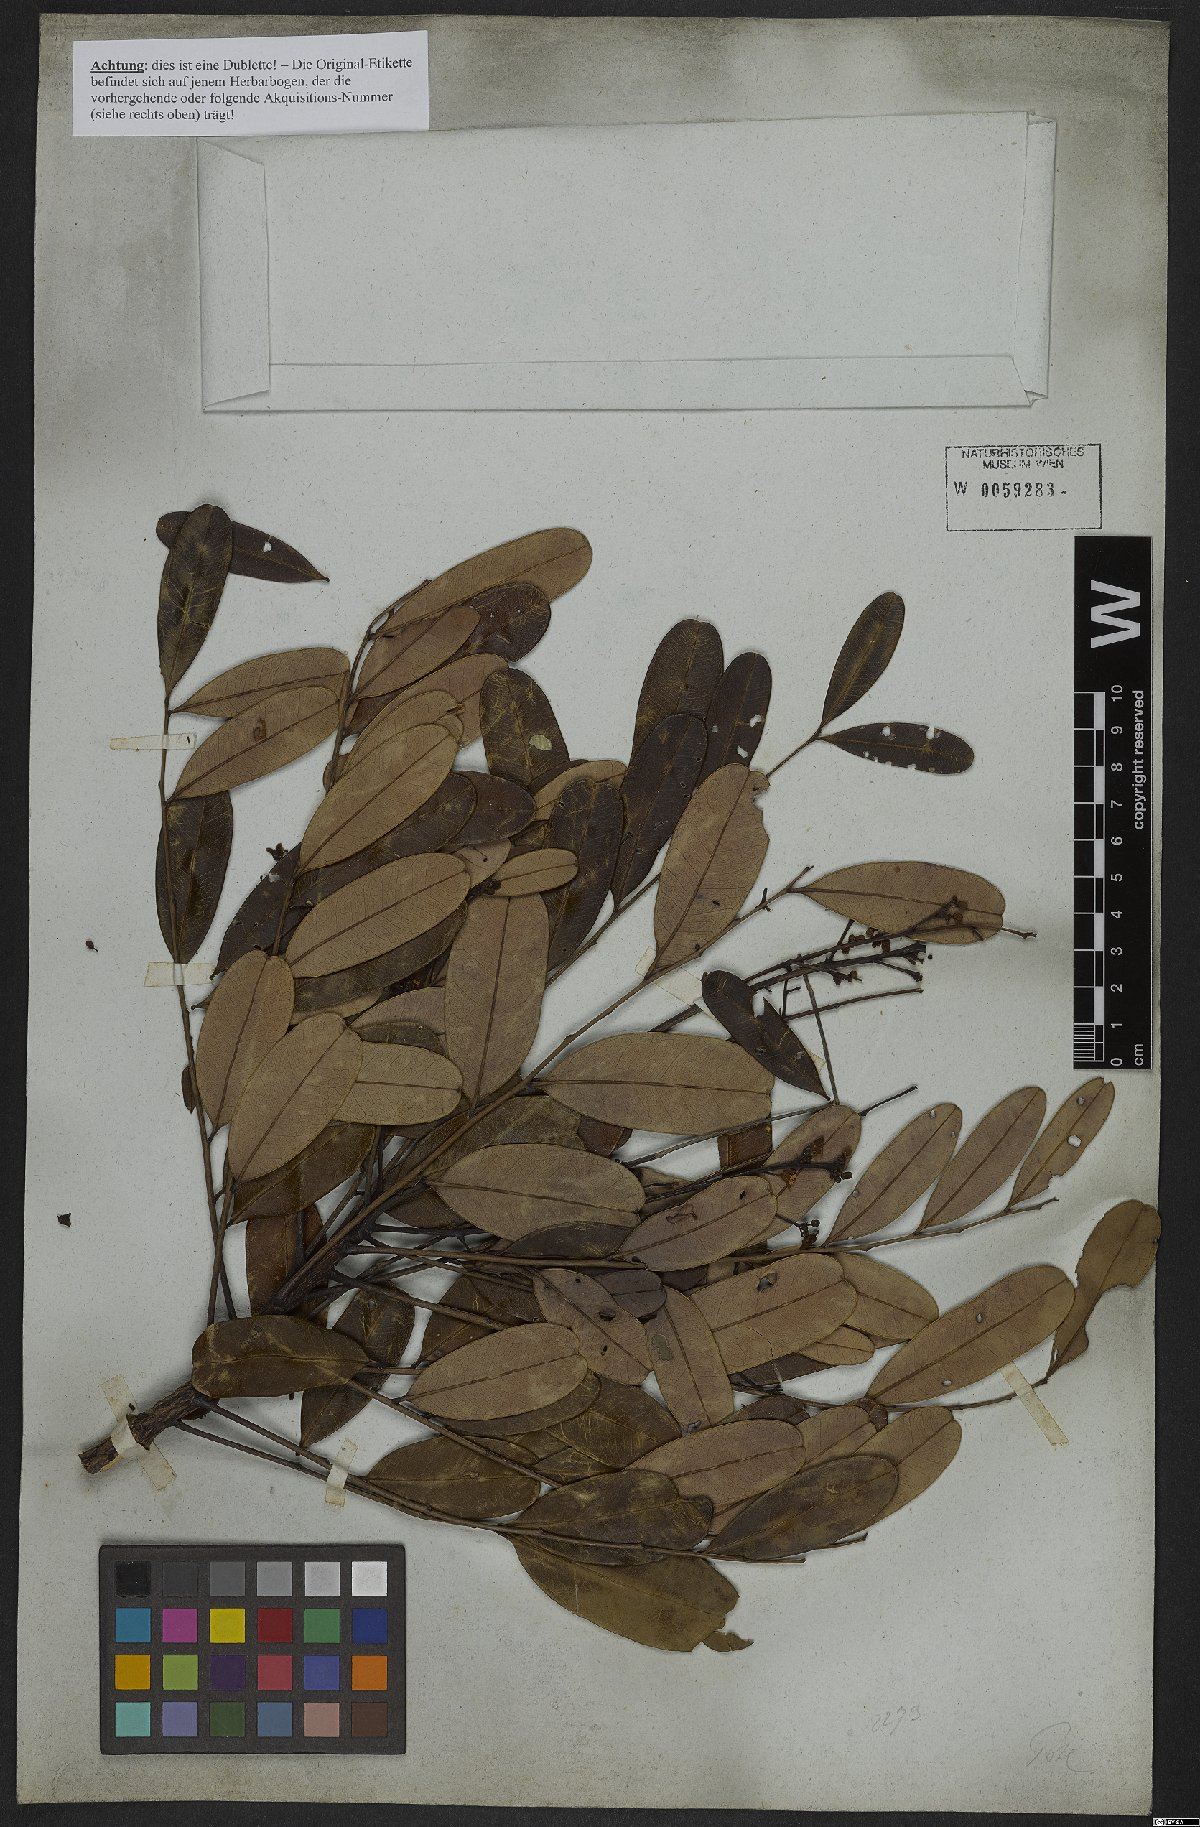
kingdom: Plantae
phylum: Tracheophyta
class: Magnoliopsida
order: Sapindales
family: Simaroubaceae
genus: Simarouba
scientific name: Simarouba versicolor
